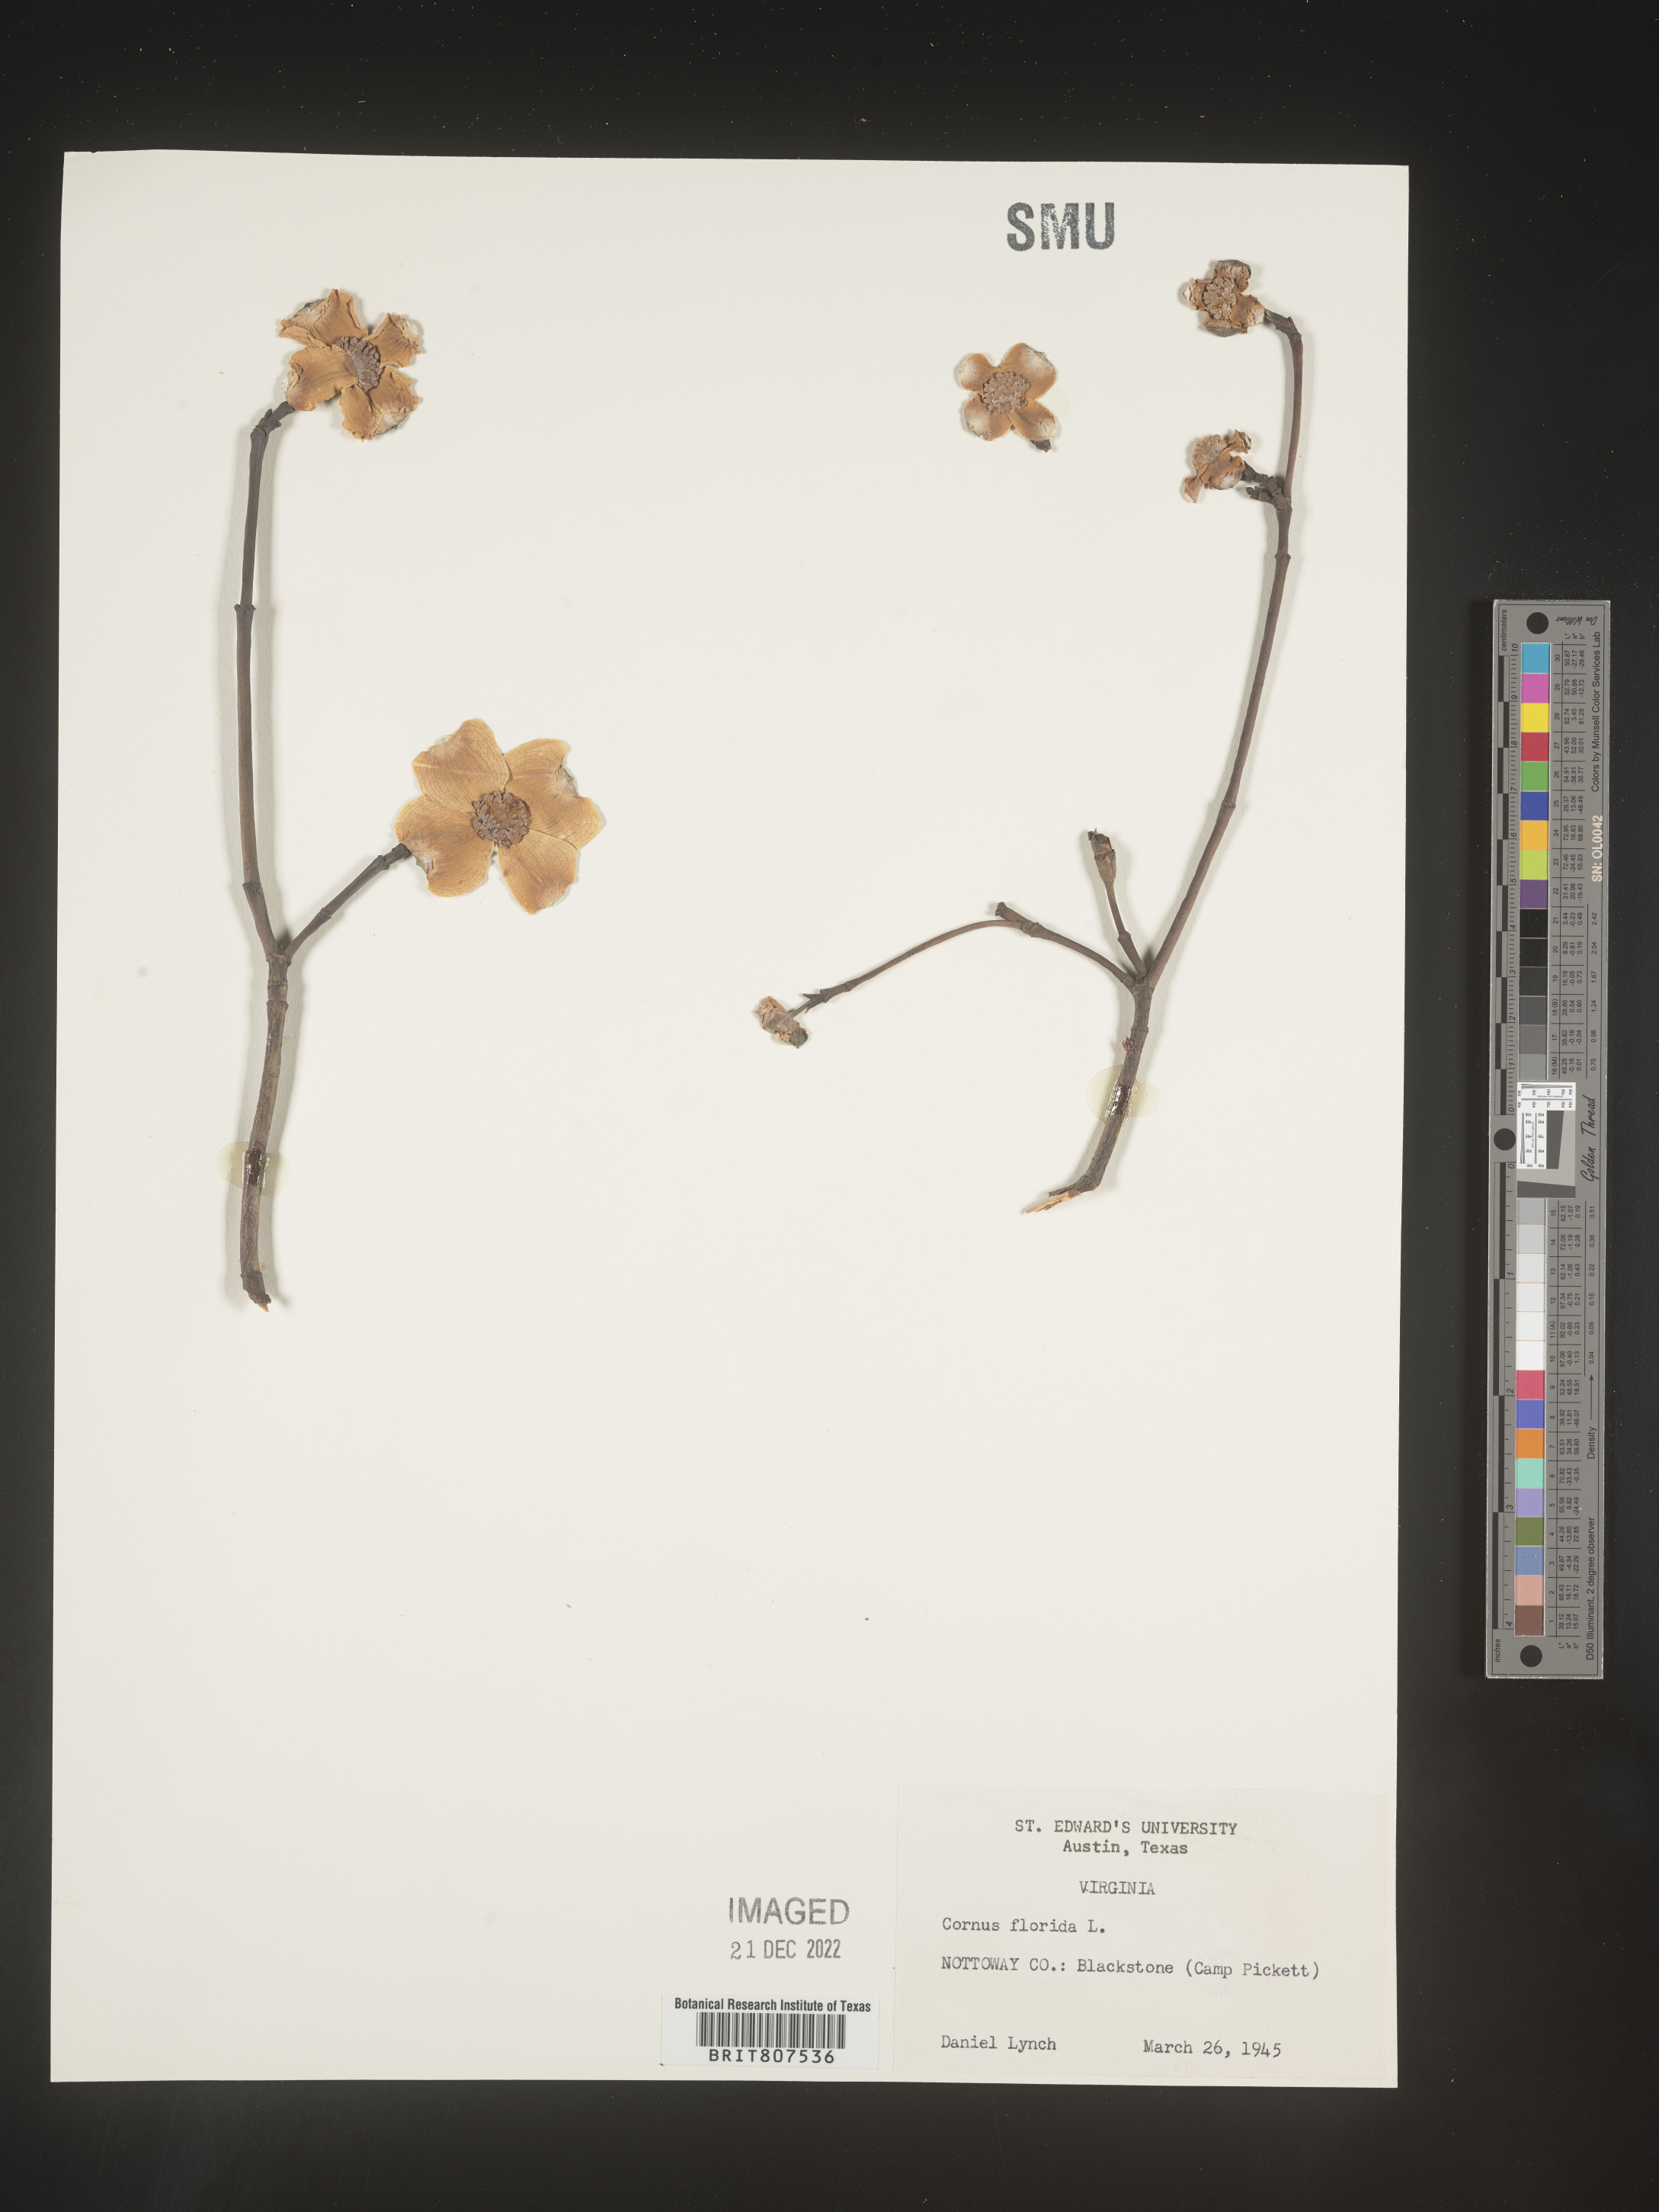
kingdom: Plantae
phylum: Tracheophyta
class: Magnoliopsida
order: Cornales
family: Cornaceae
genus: Cornus
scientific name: Cornus florida
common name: Flowering dogwood
